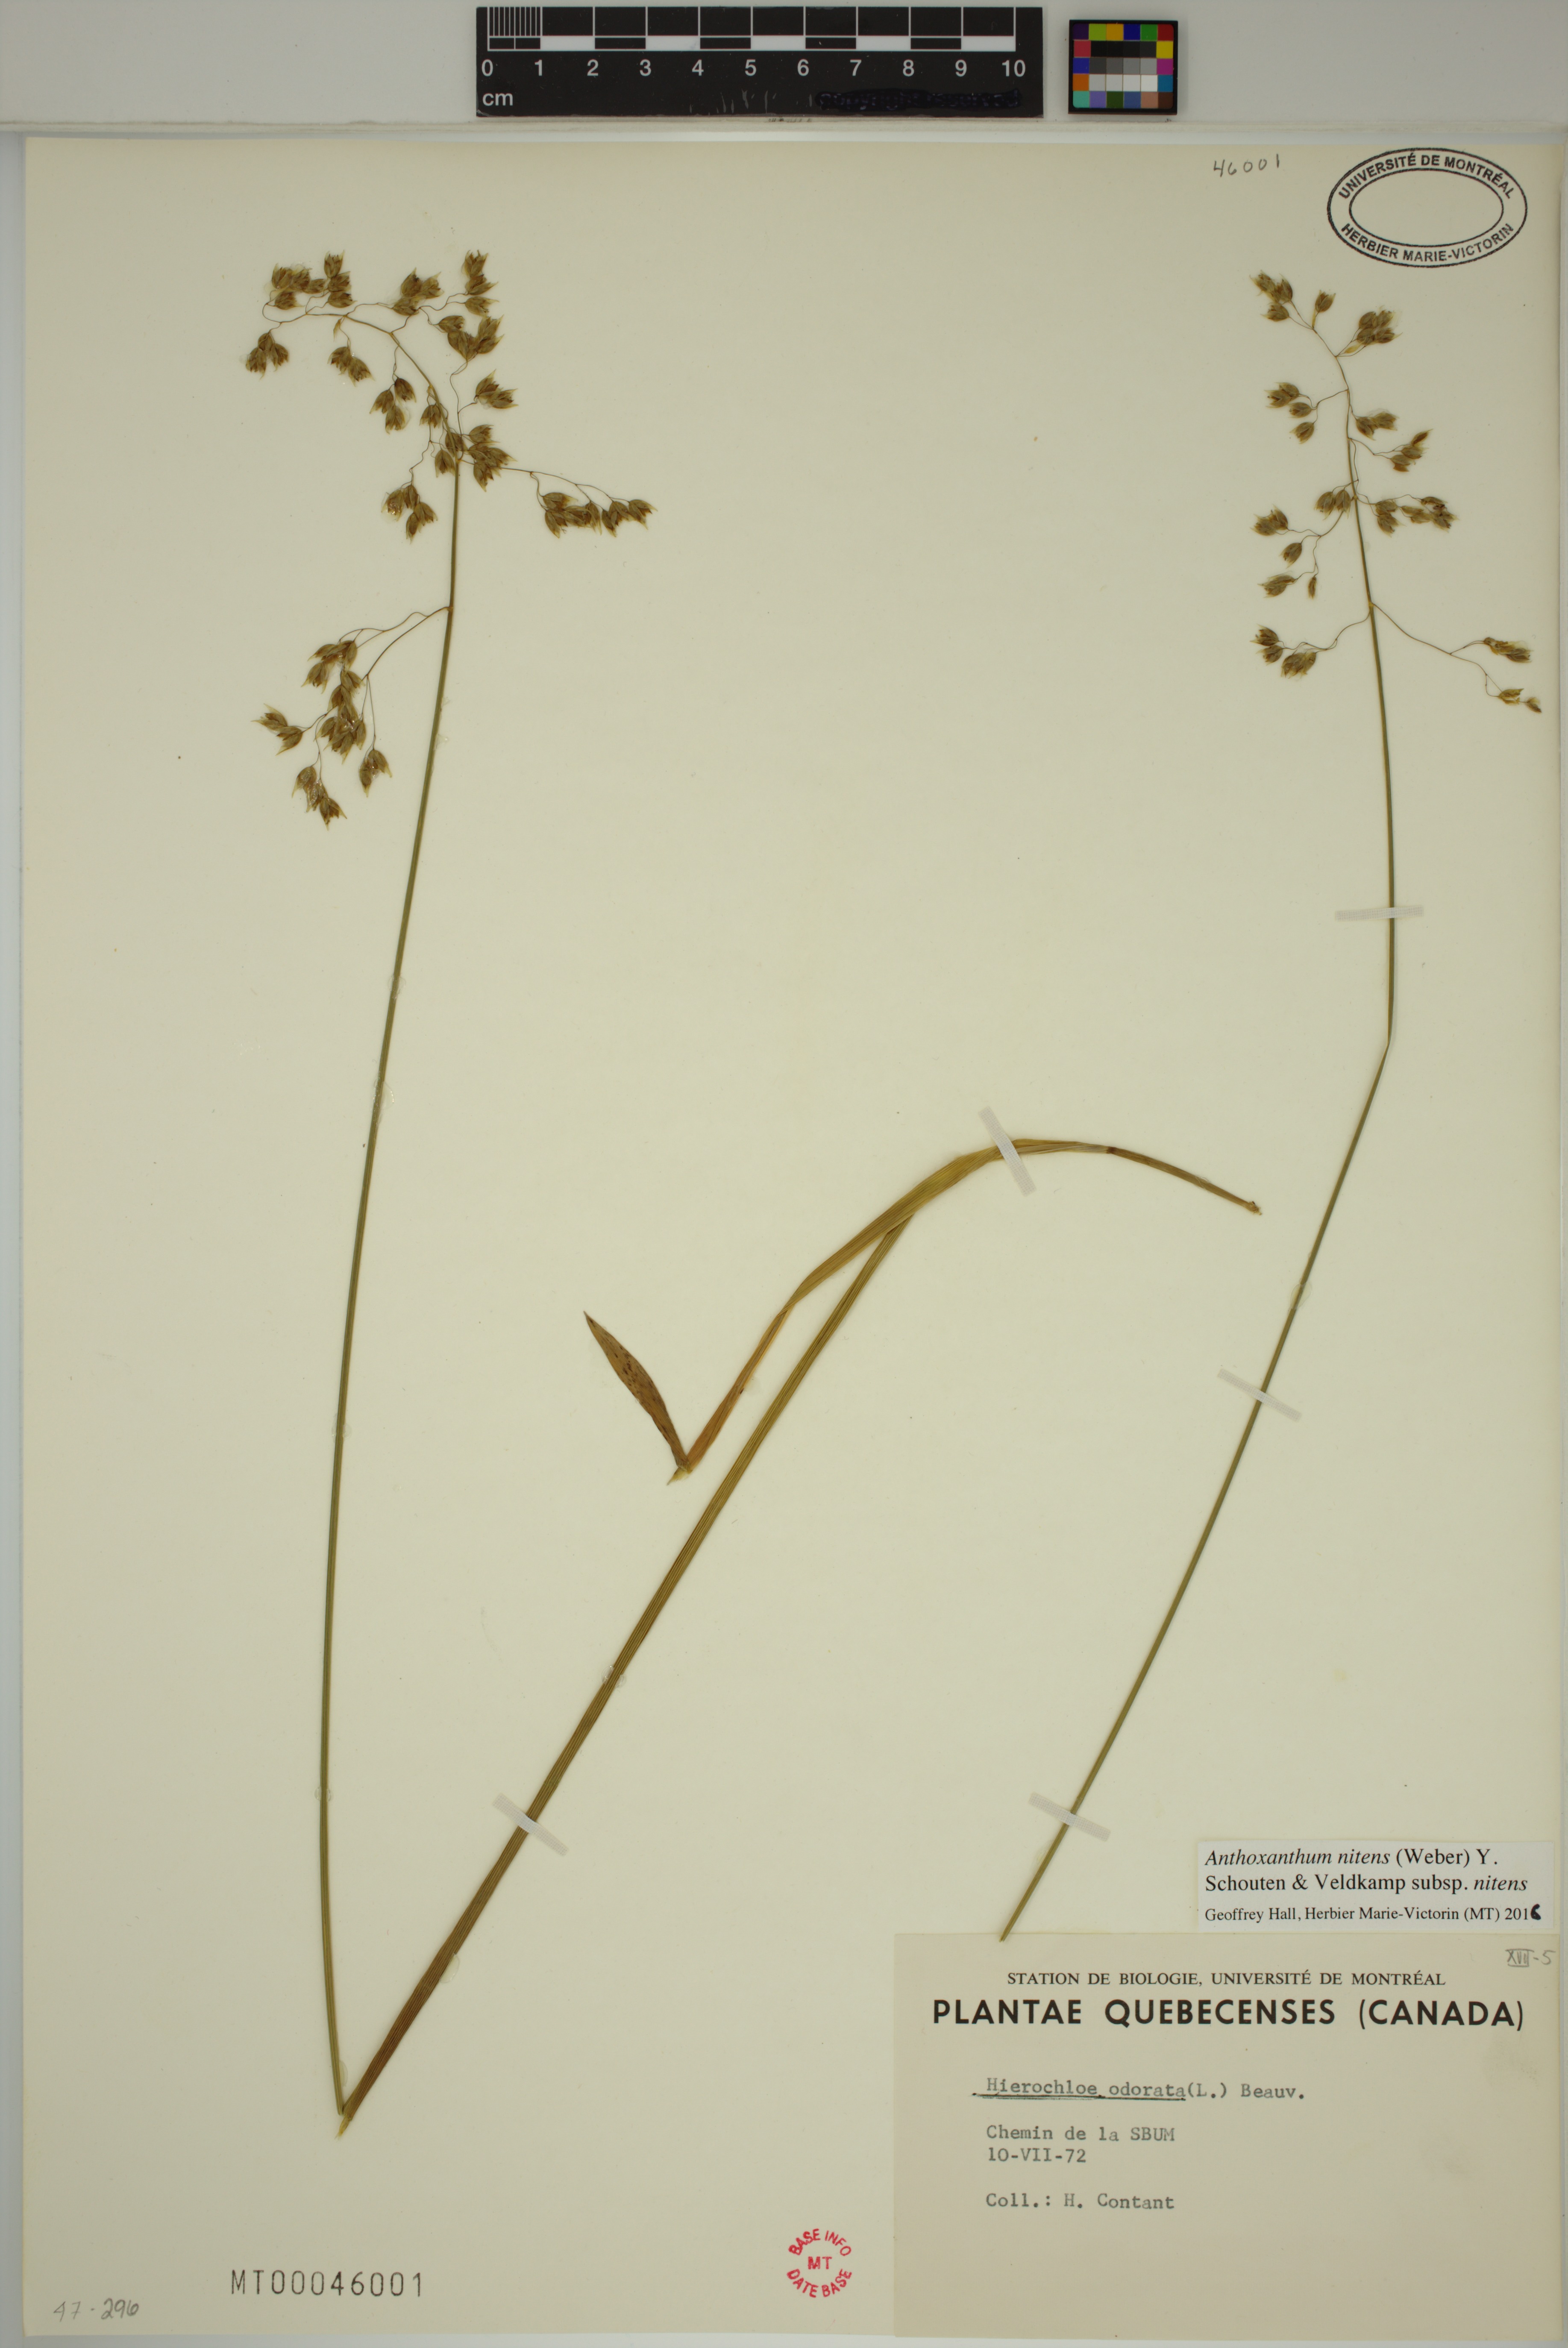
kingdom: Plantae
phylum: Tracheophyta
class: Liliopsida
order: Poales
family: Poaceae
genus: Anthoxanthum
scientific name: Anthoxanthum nitens
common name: Holy grass
